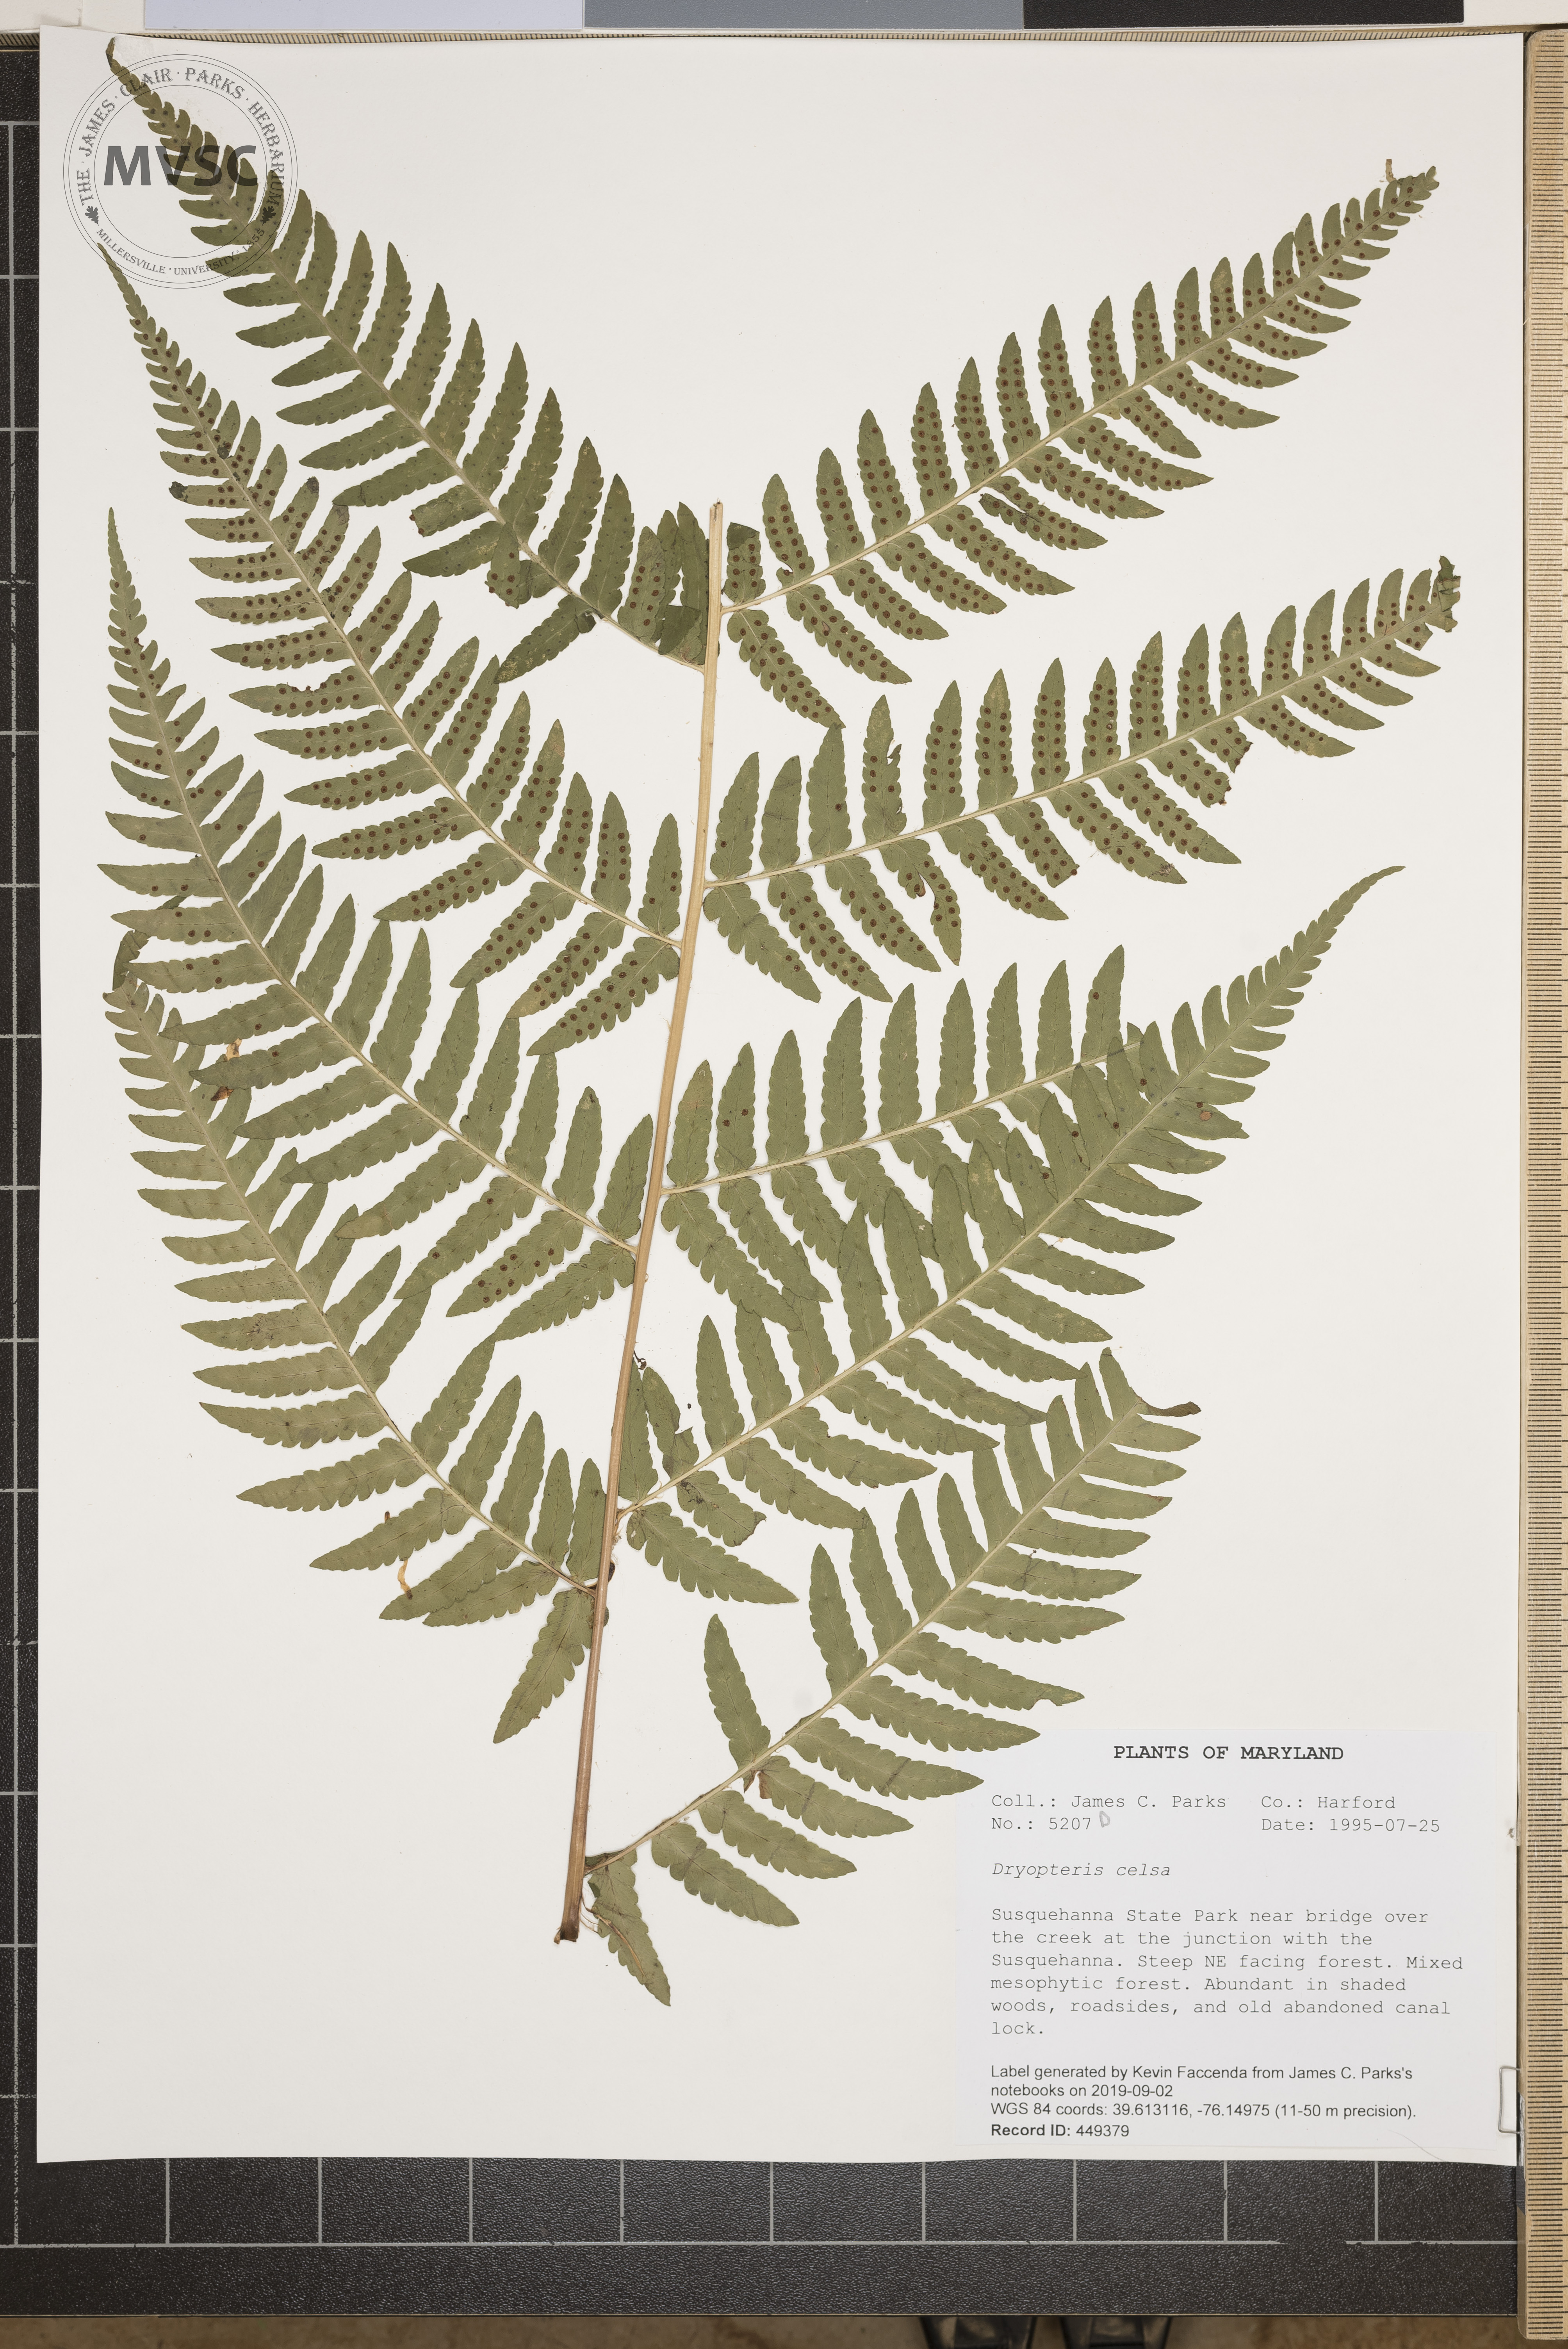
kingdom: Plantae
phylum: Tracheophyta
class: Polypodiopsida
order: Polypodiales
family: Dryopteridaceae
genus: Dryopteris
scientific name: Dryopteris celsa
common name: Log fern
